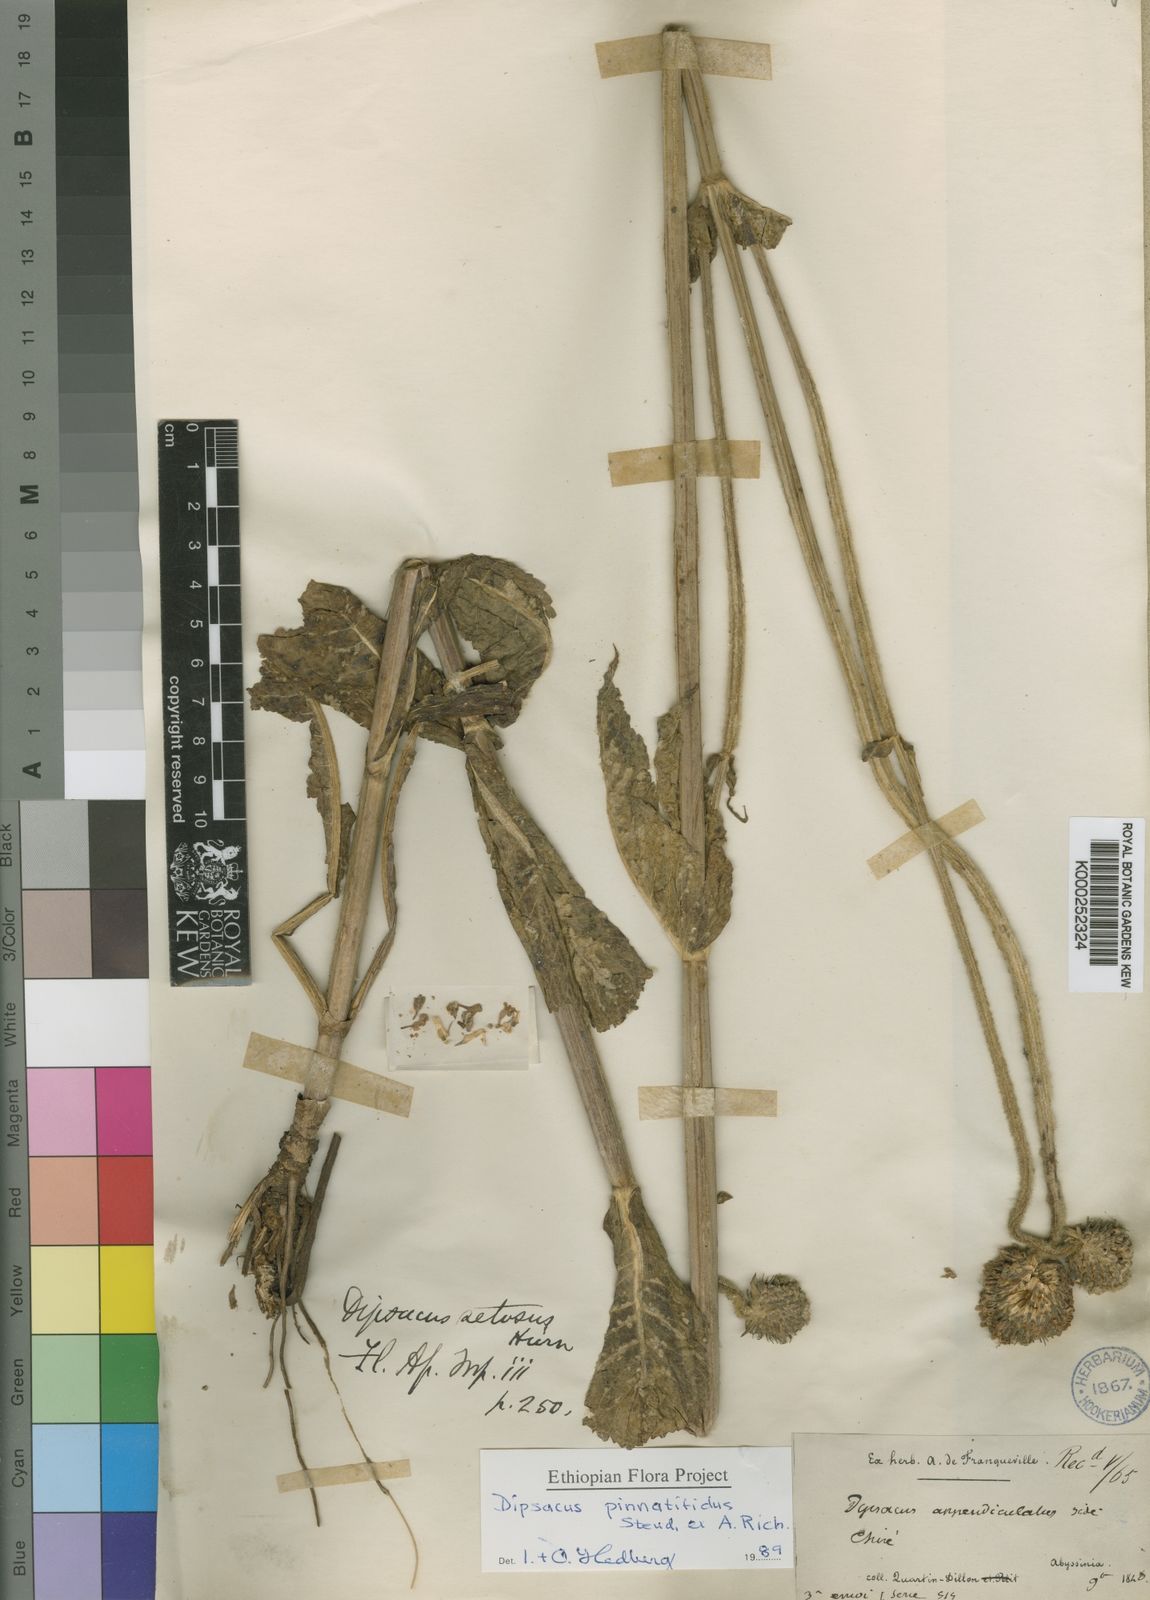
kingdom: Plantae
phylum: Tracheophyta
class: Magnoliopsida
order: Dipsacales
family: Caprifoliaceae
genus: Dipsacus
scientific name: Dipsacus pinnatifidus
